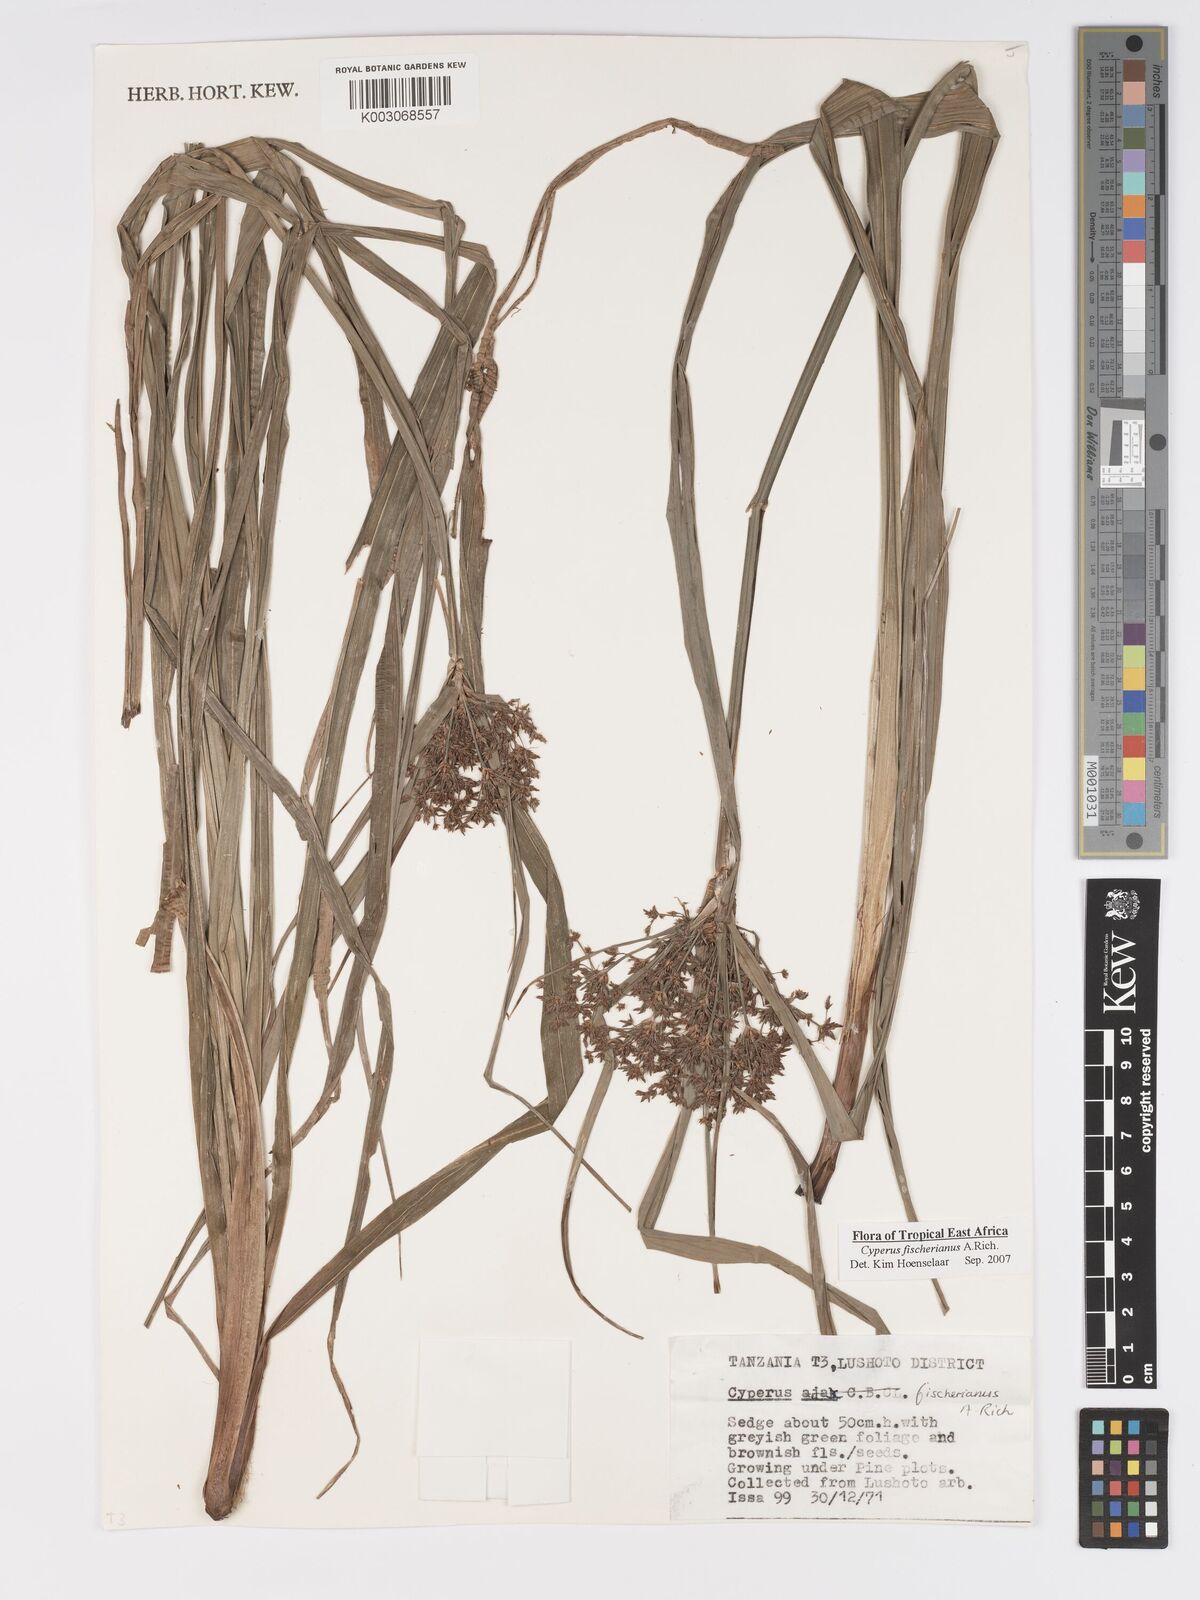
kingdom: Plantae
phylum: Tracheophyta
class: Liliopsida
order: Poales
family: Cyperaceae
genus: Cyperus
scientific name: Cyperus fischerianus
